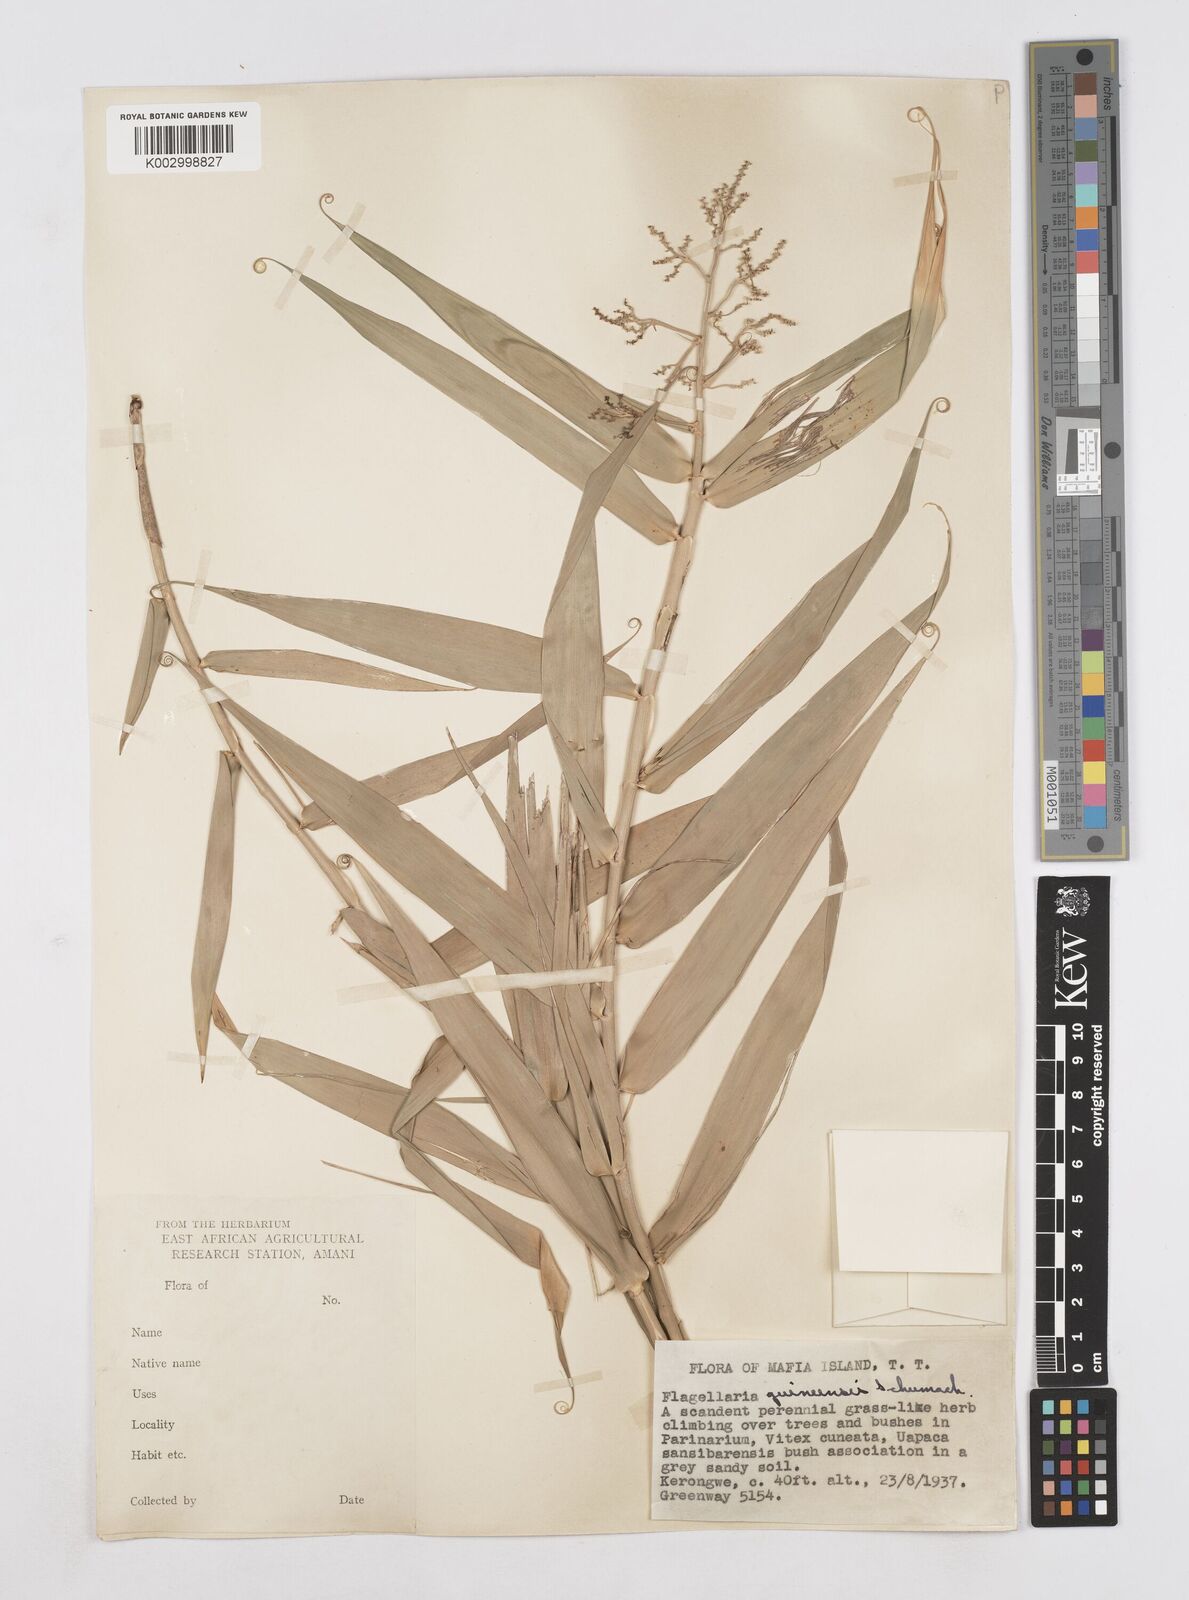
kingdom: Plantae
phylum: Tracheophyta
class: Liliopsida
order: Poales
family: Flagellariaceae
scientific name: Flagellariaceae
